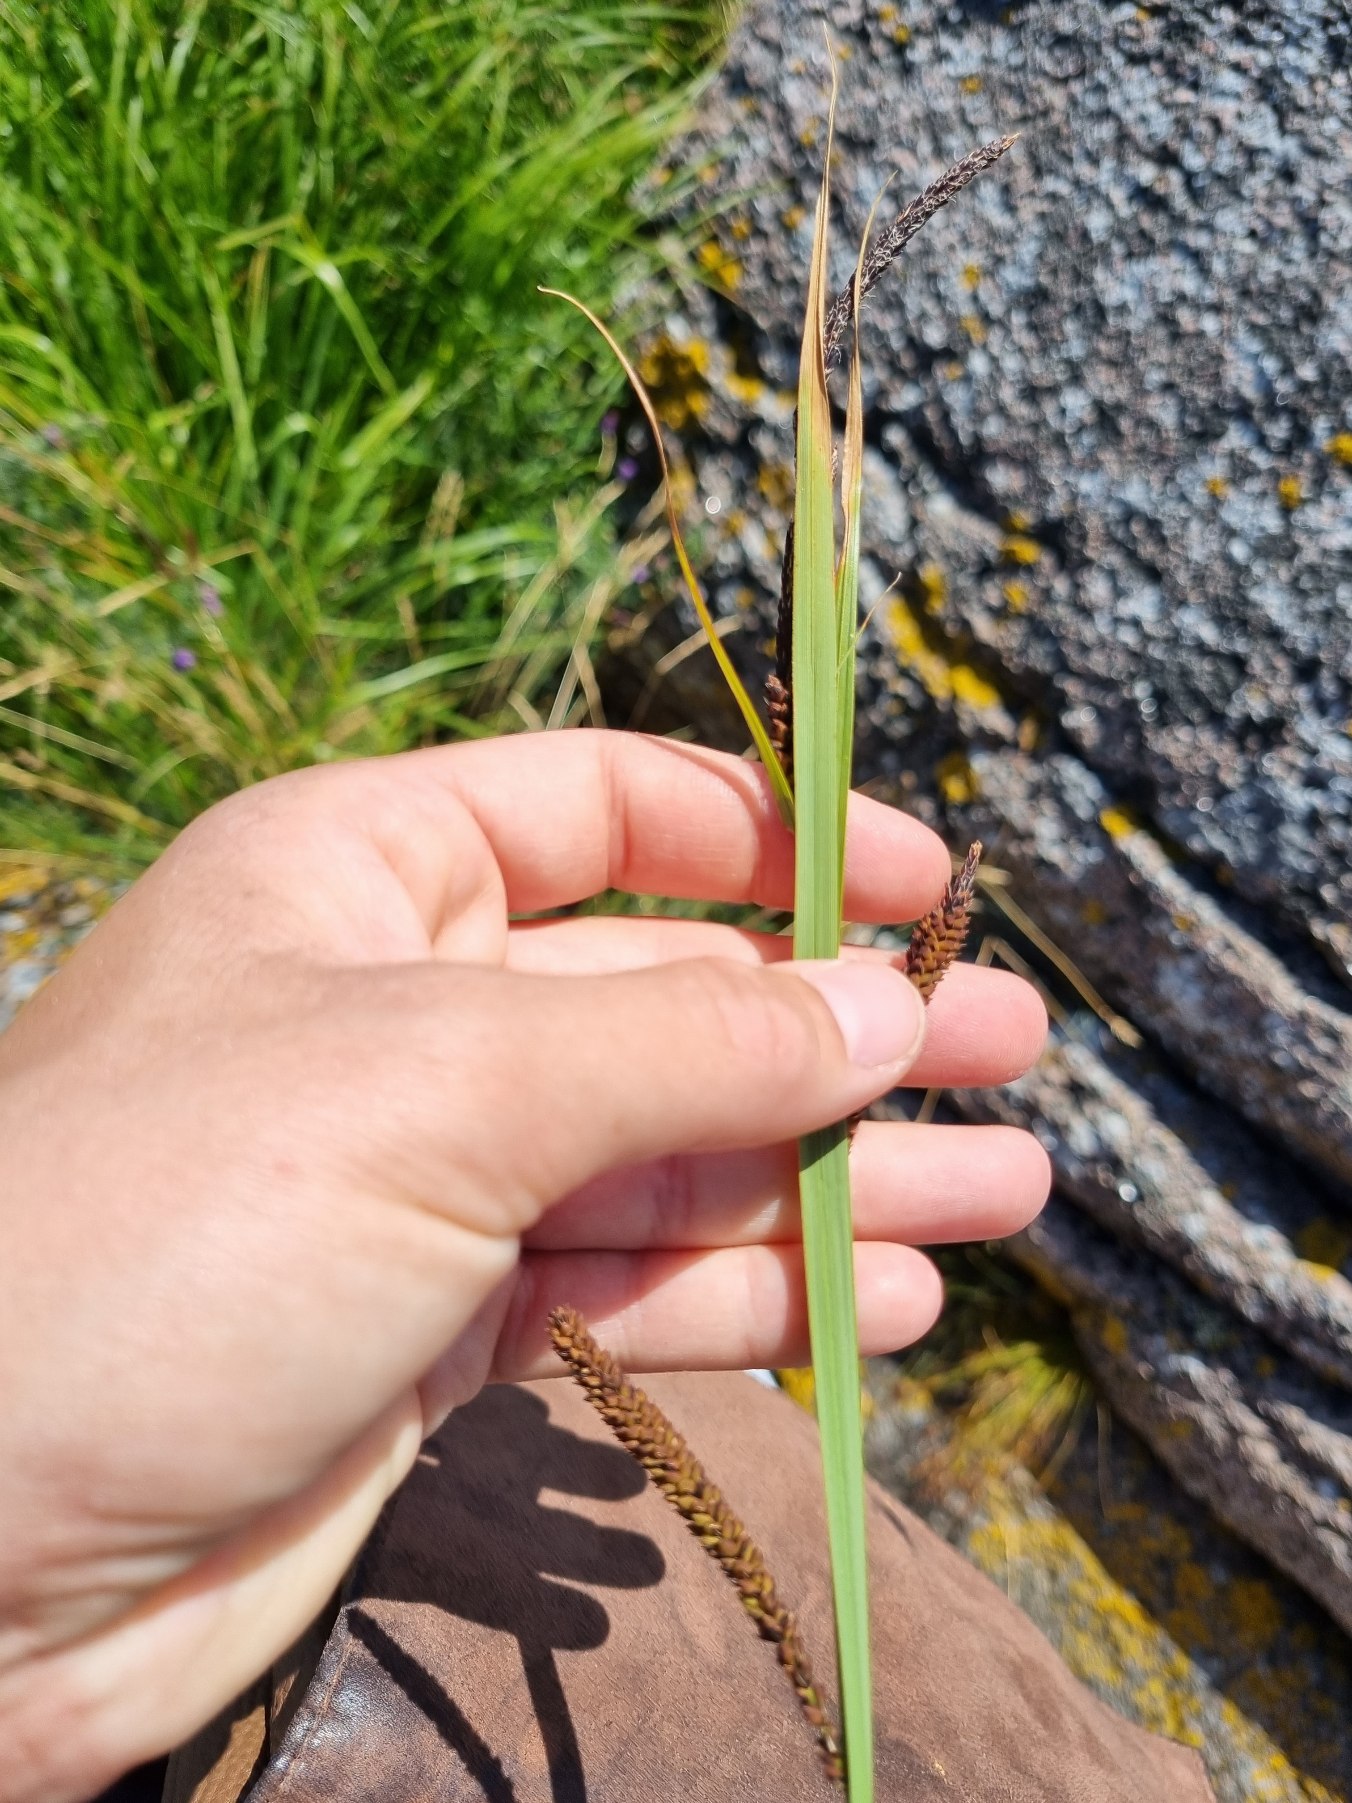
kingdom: Plantae
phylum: Tracheophyta
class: Liliopsida
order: Poales
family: Cyperaceae
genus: Carex
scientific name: Carex acuta
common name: Nikkende star
